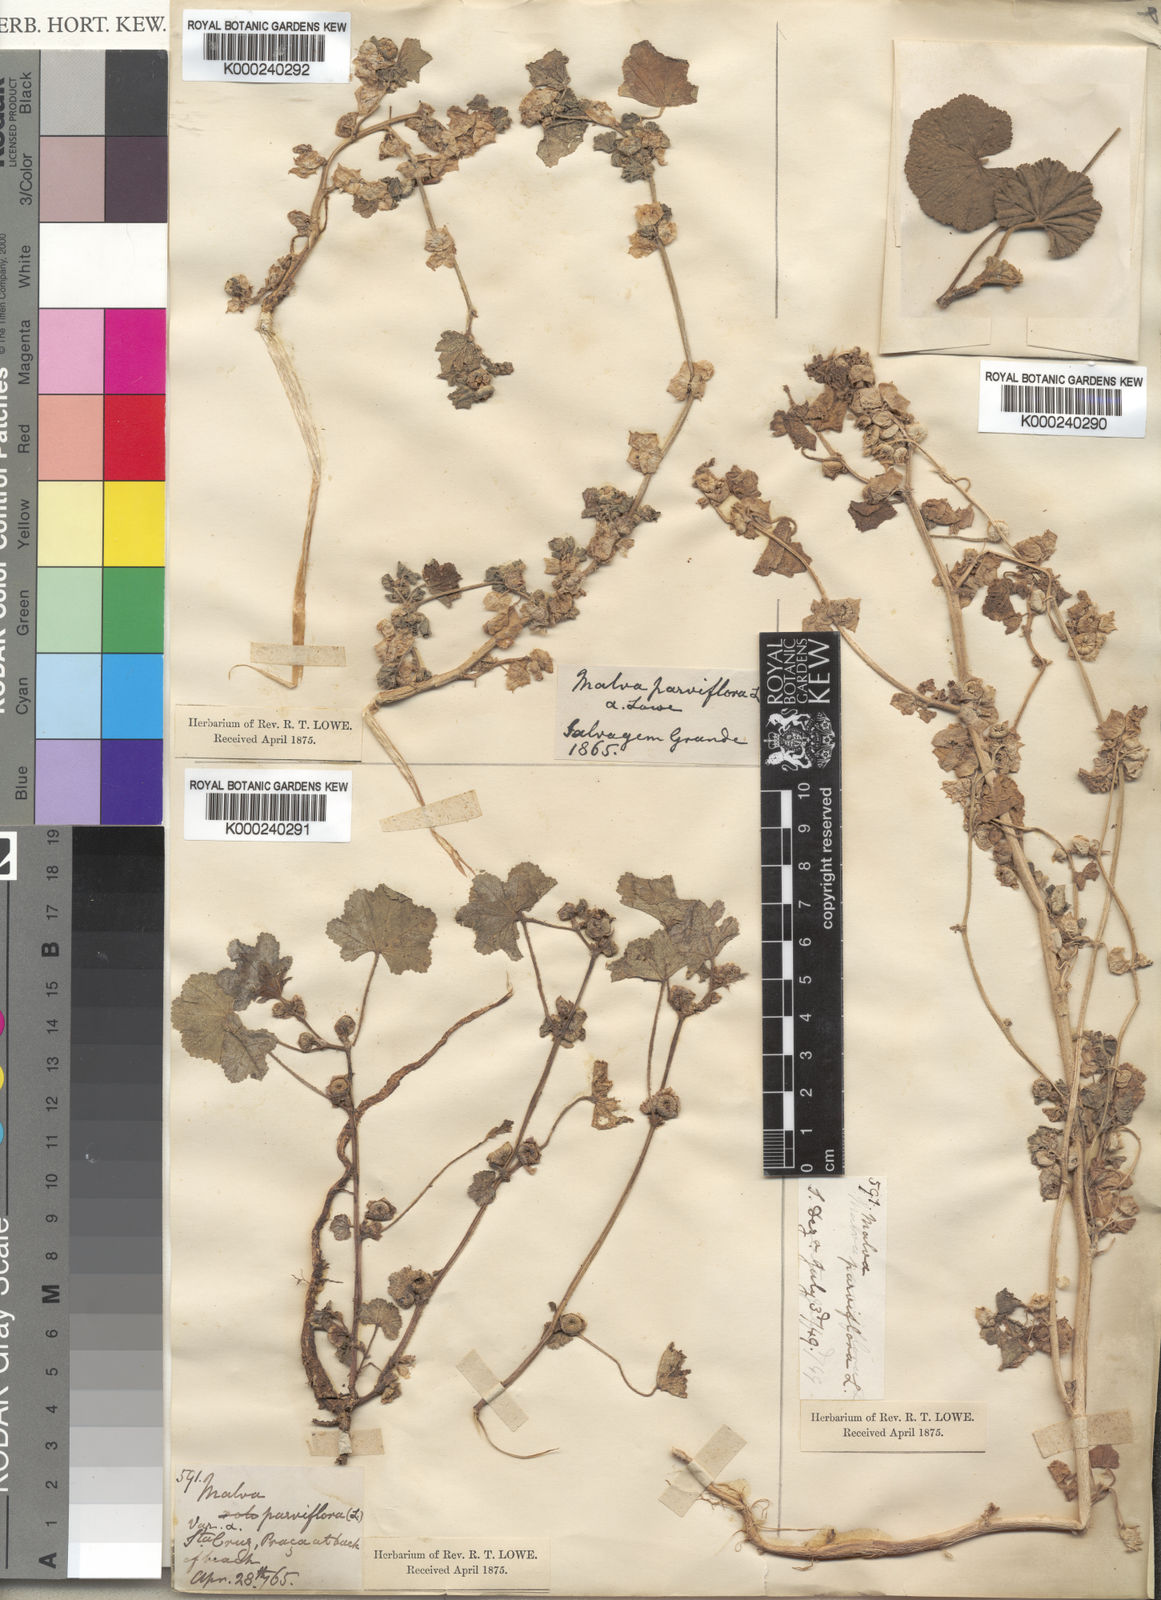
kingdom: Plantae
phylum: Tracheophyta
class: Magnoliopsida
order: Malvales
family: Malvaceae
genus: Malva
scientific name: Malva parviflora
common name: Least mallow
